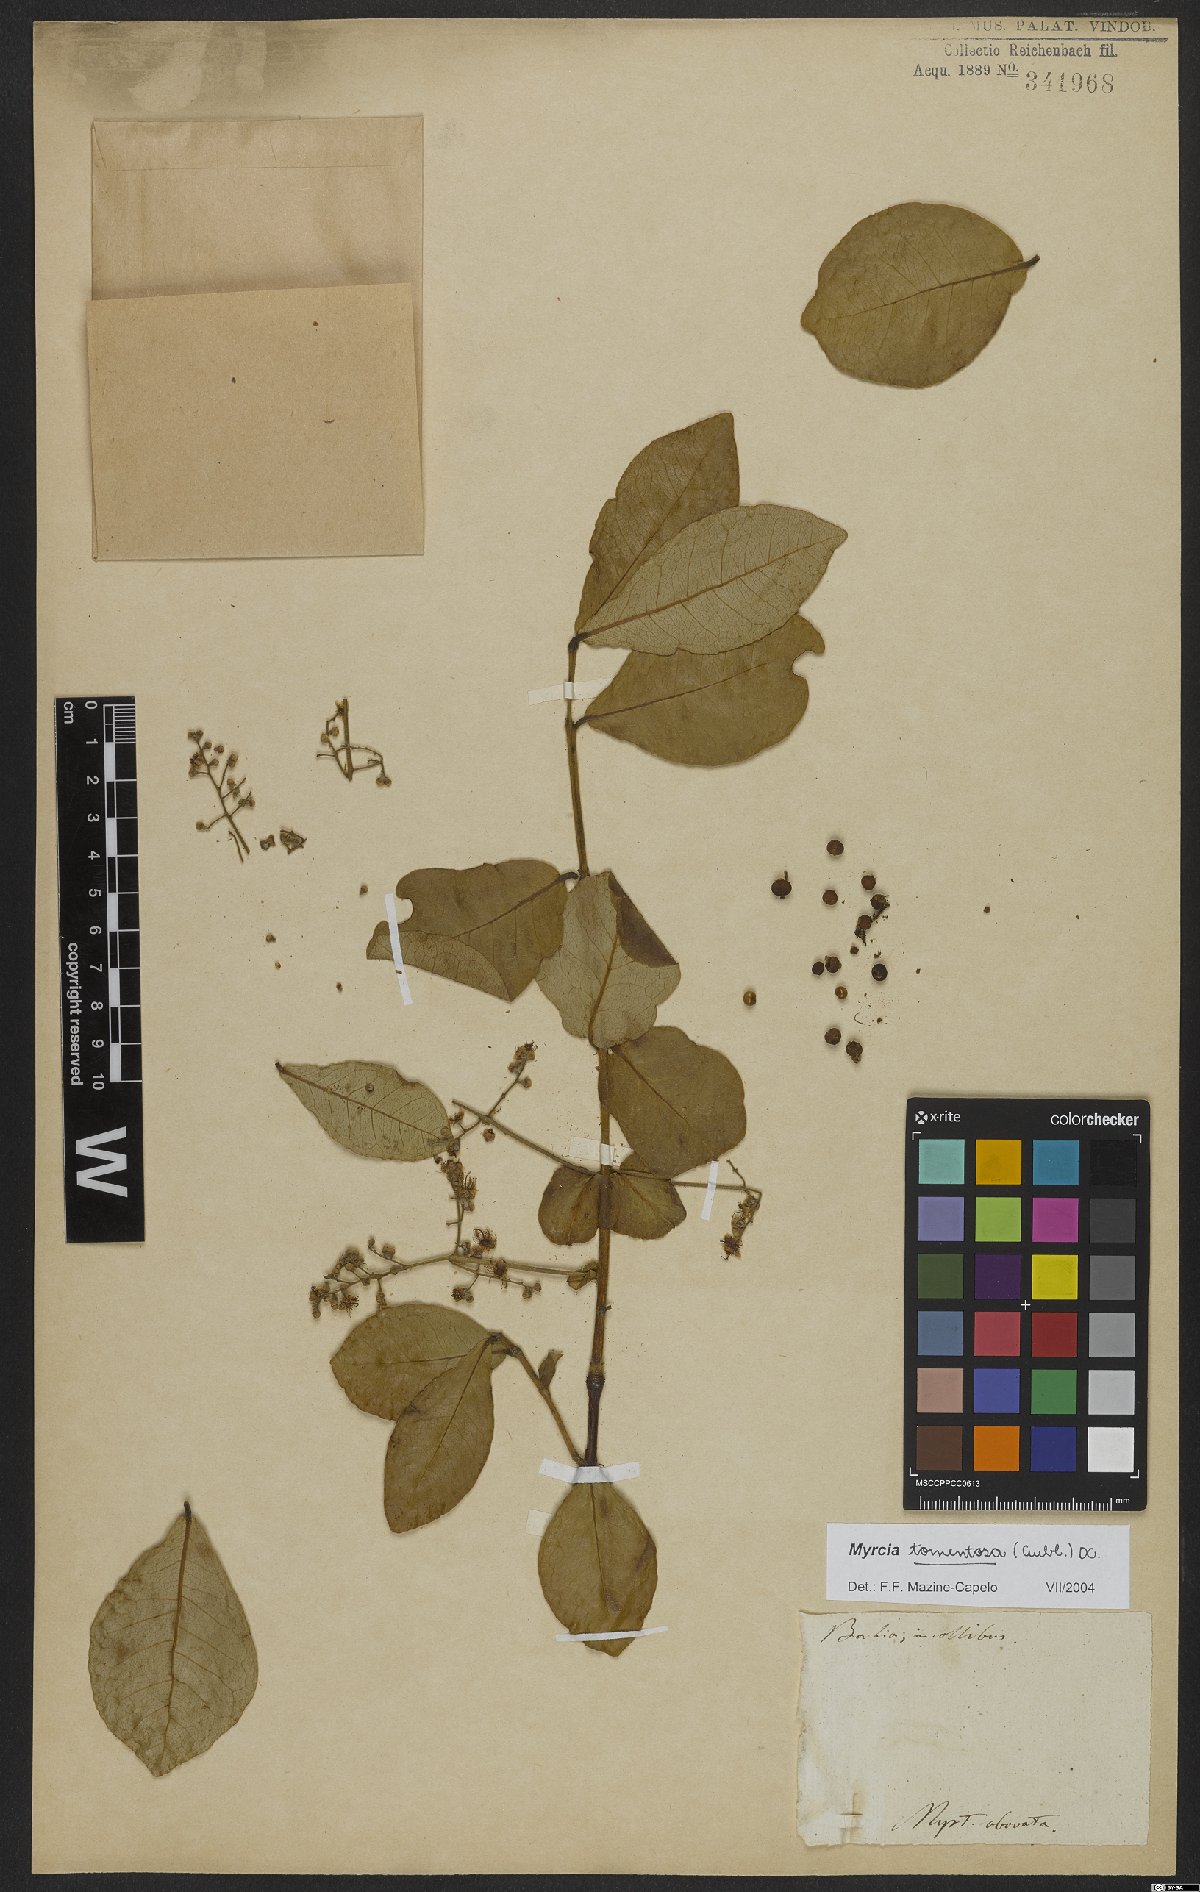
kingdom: Plantae
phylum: Tracheophyta
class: Magnoliopsida
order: Myrtales
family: Myrtaceae
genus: Myrcia
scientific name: Myrcia tomentosa
